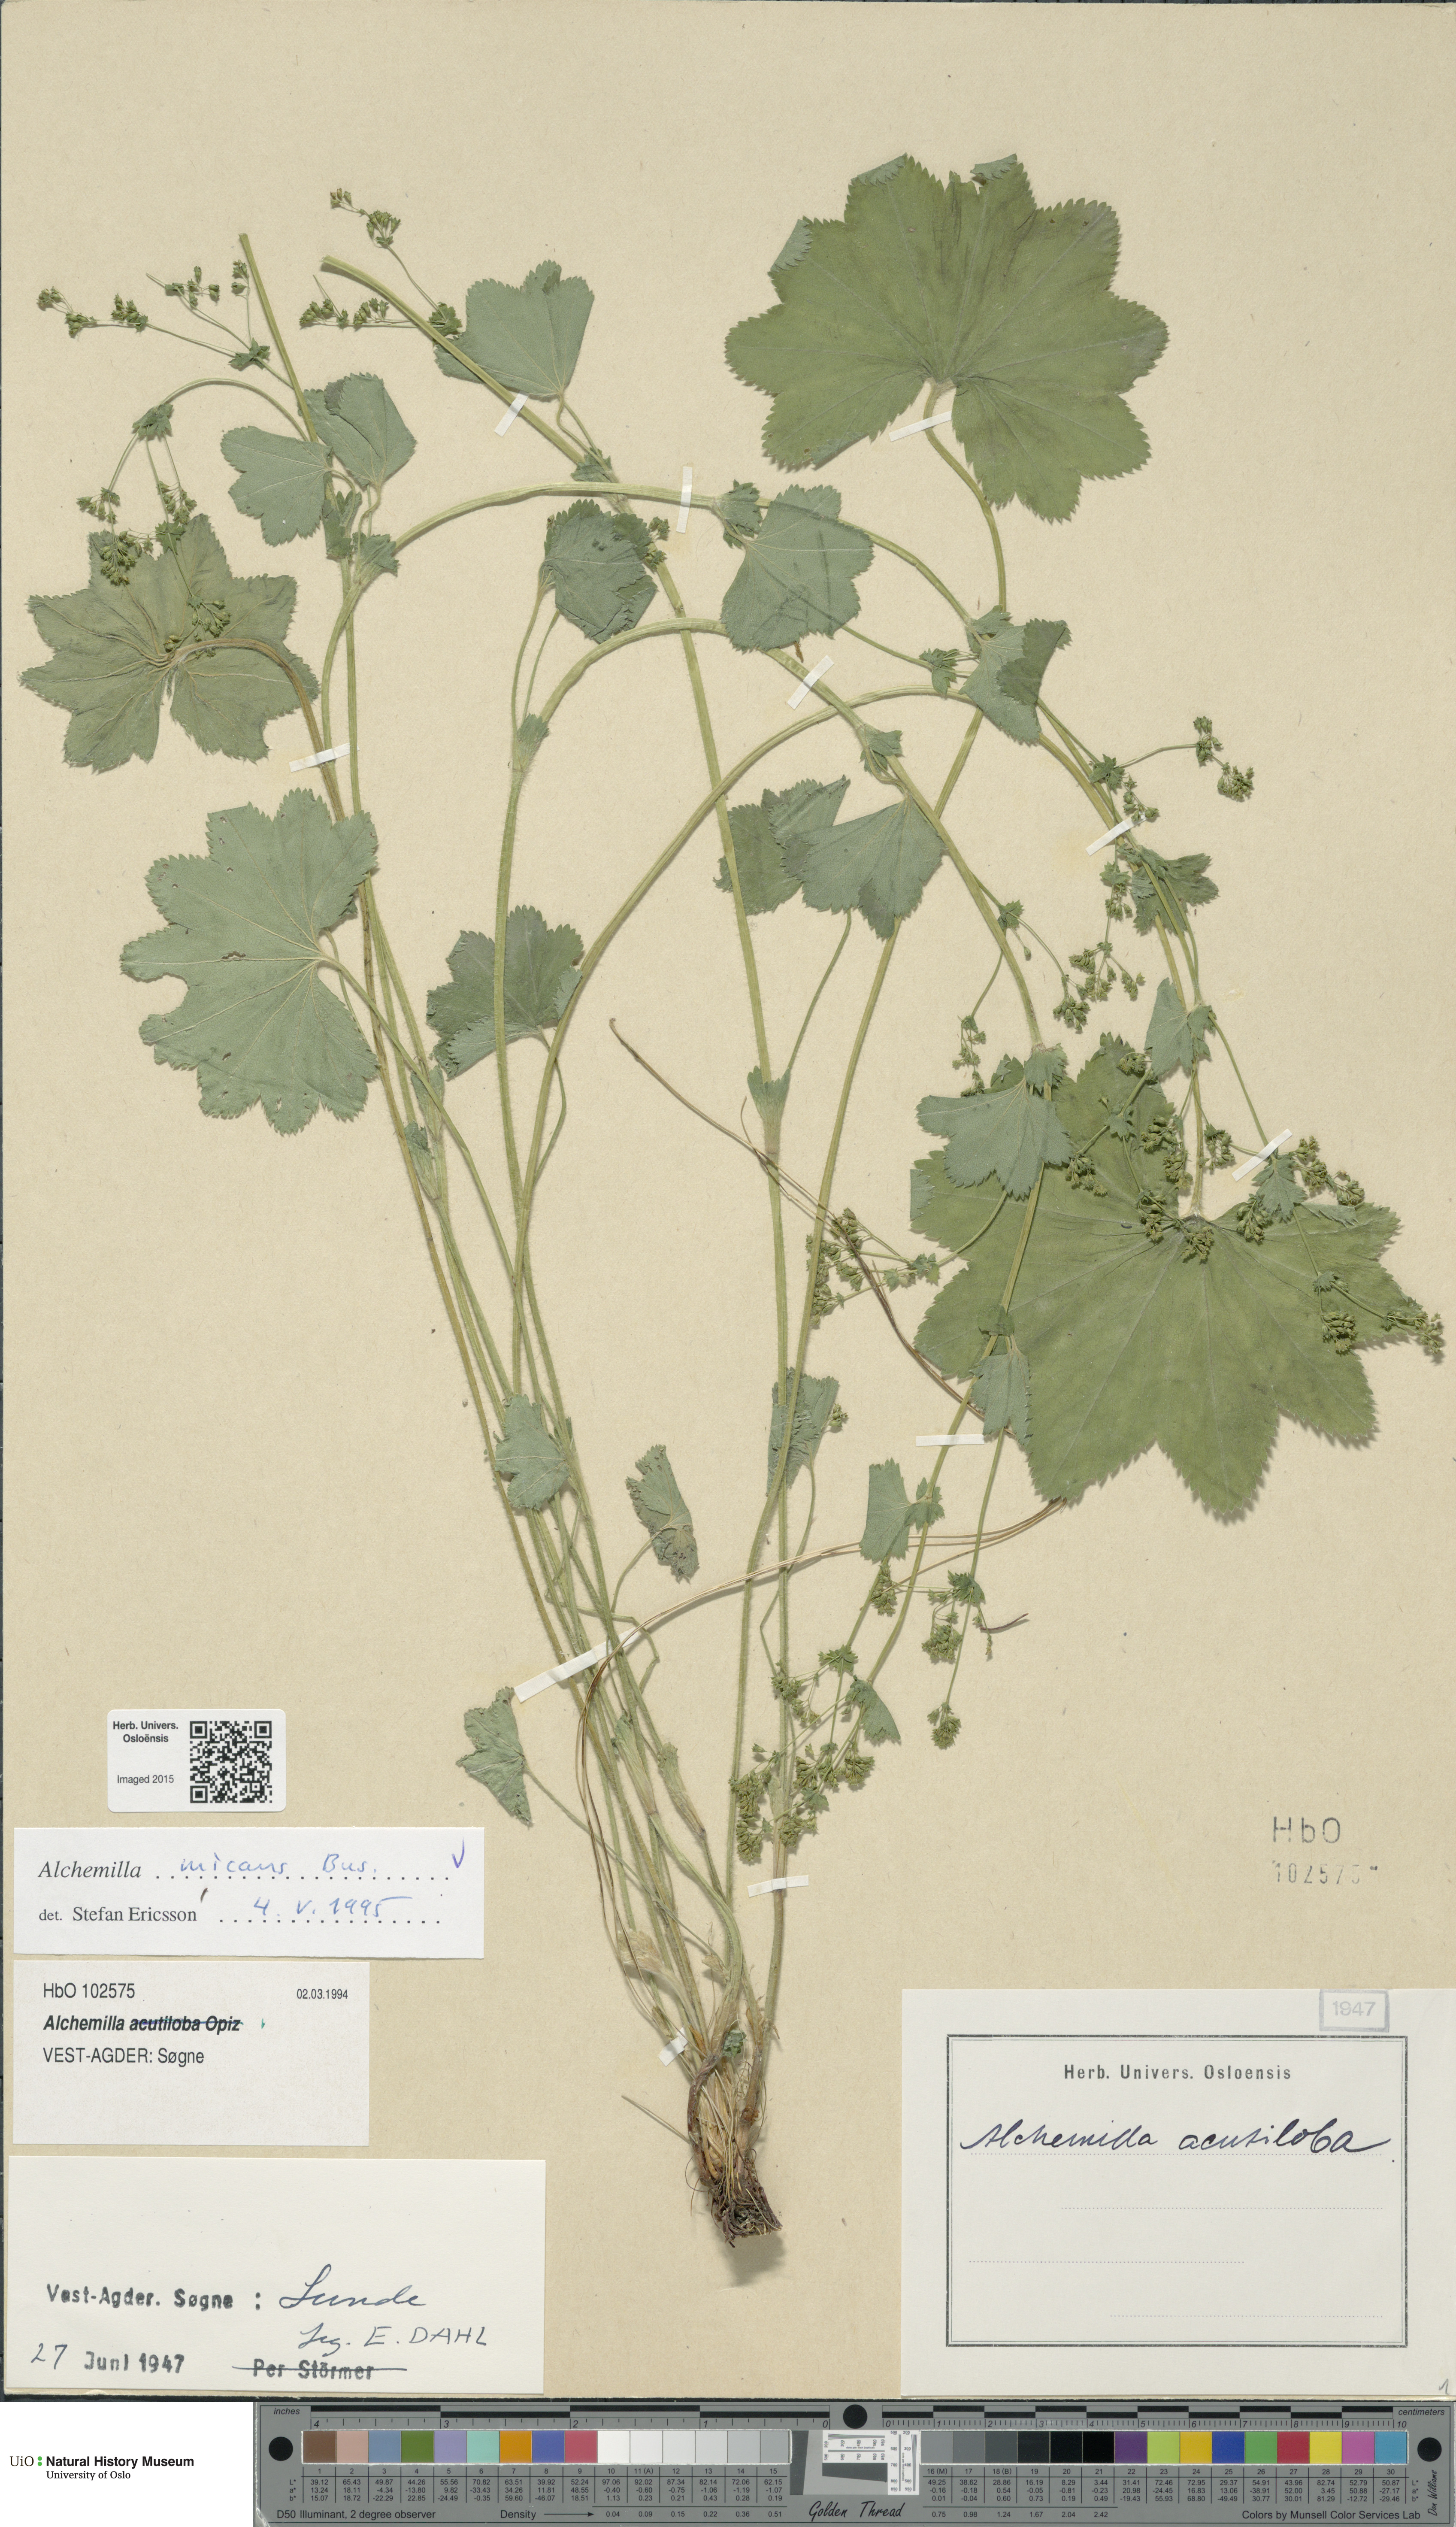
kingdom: Plantae
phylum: Tracheophyta
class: Magnoliopsida
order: Rosales
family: Rosaceae
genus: Alchemilla
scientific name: Alchemilla micans
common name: Gleaming lady's mantle
